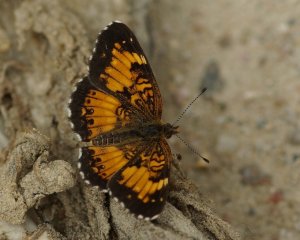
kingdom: Animalia
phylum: Arthropoda
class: Insecta
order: Lepidoptera
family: Nymphalidae
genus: Chlosyne
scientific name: Chlosyne harrisii
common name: Harris's Checkerspot
